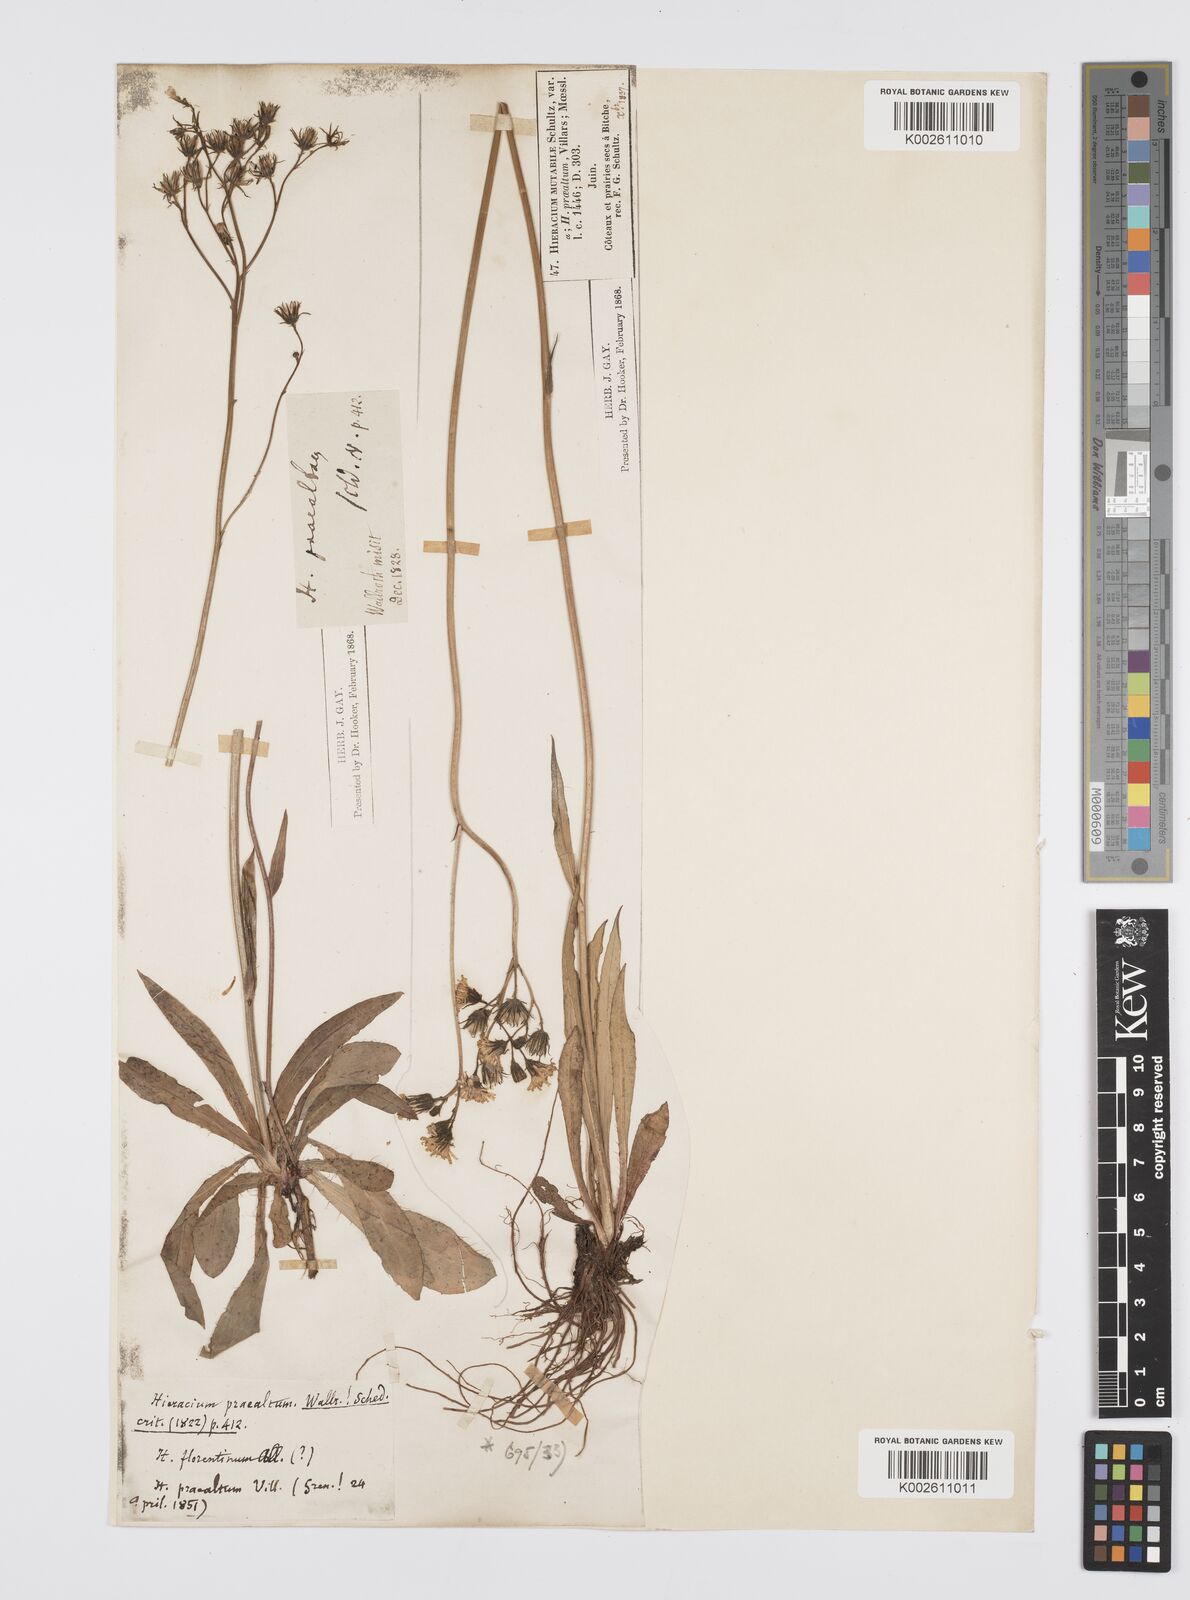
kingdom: Plantae
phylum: Tracheophyta
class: Magnoliopsida
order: Asterales
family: Asteraceae
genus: Pilosella
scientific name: Pilosella piloselloides
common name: Glaucous king-devil
